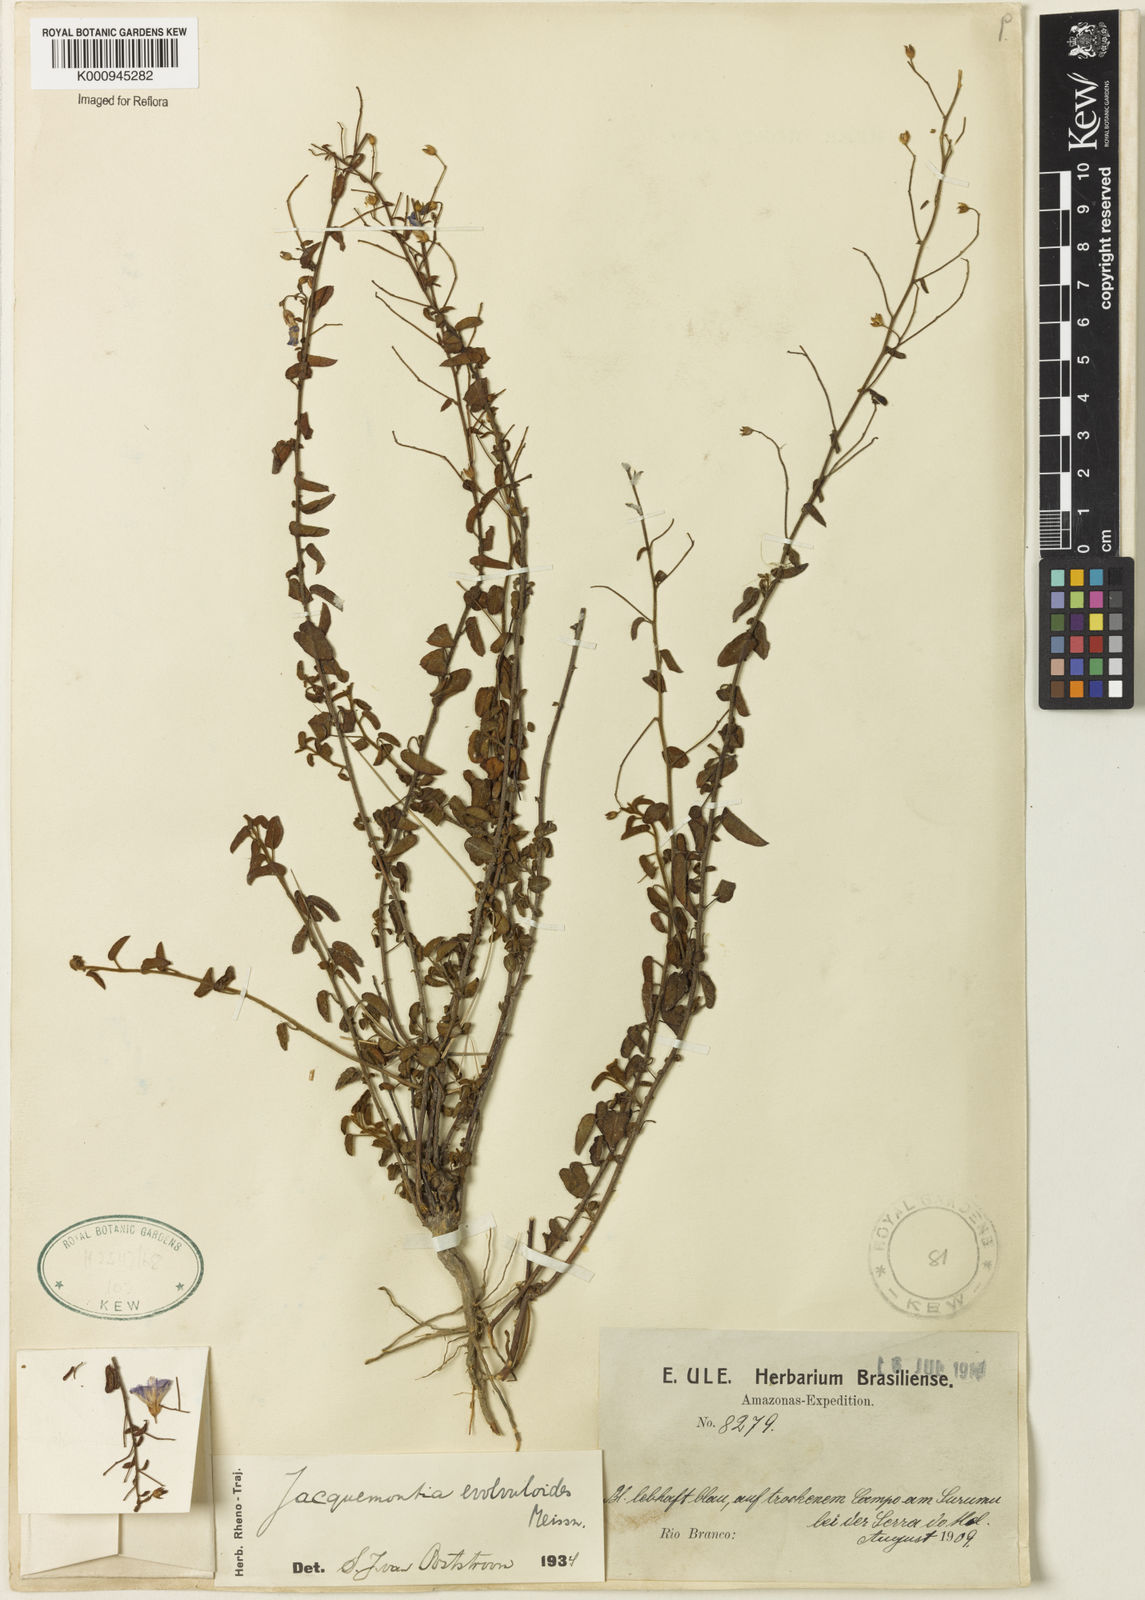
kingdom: Plantae
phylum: Tracheophyta
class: Magnoliopsida
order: Solanales
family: Convolvulaceae
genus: Jacquemontia
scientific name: Jacquemontia evolvuloides
